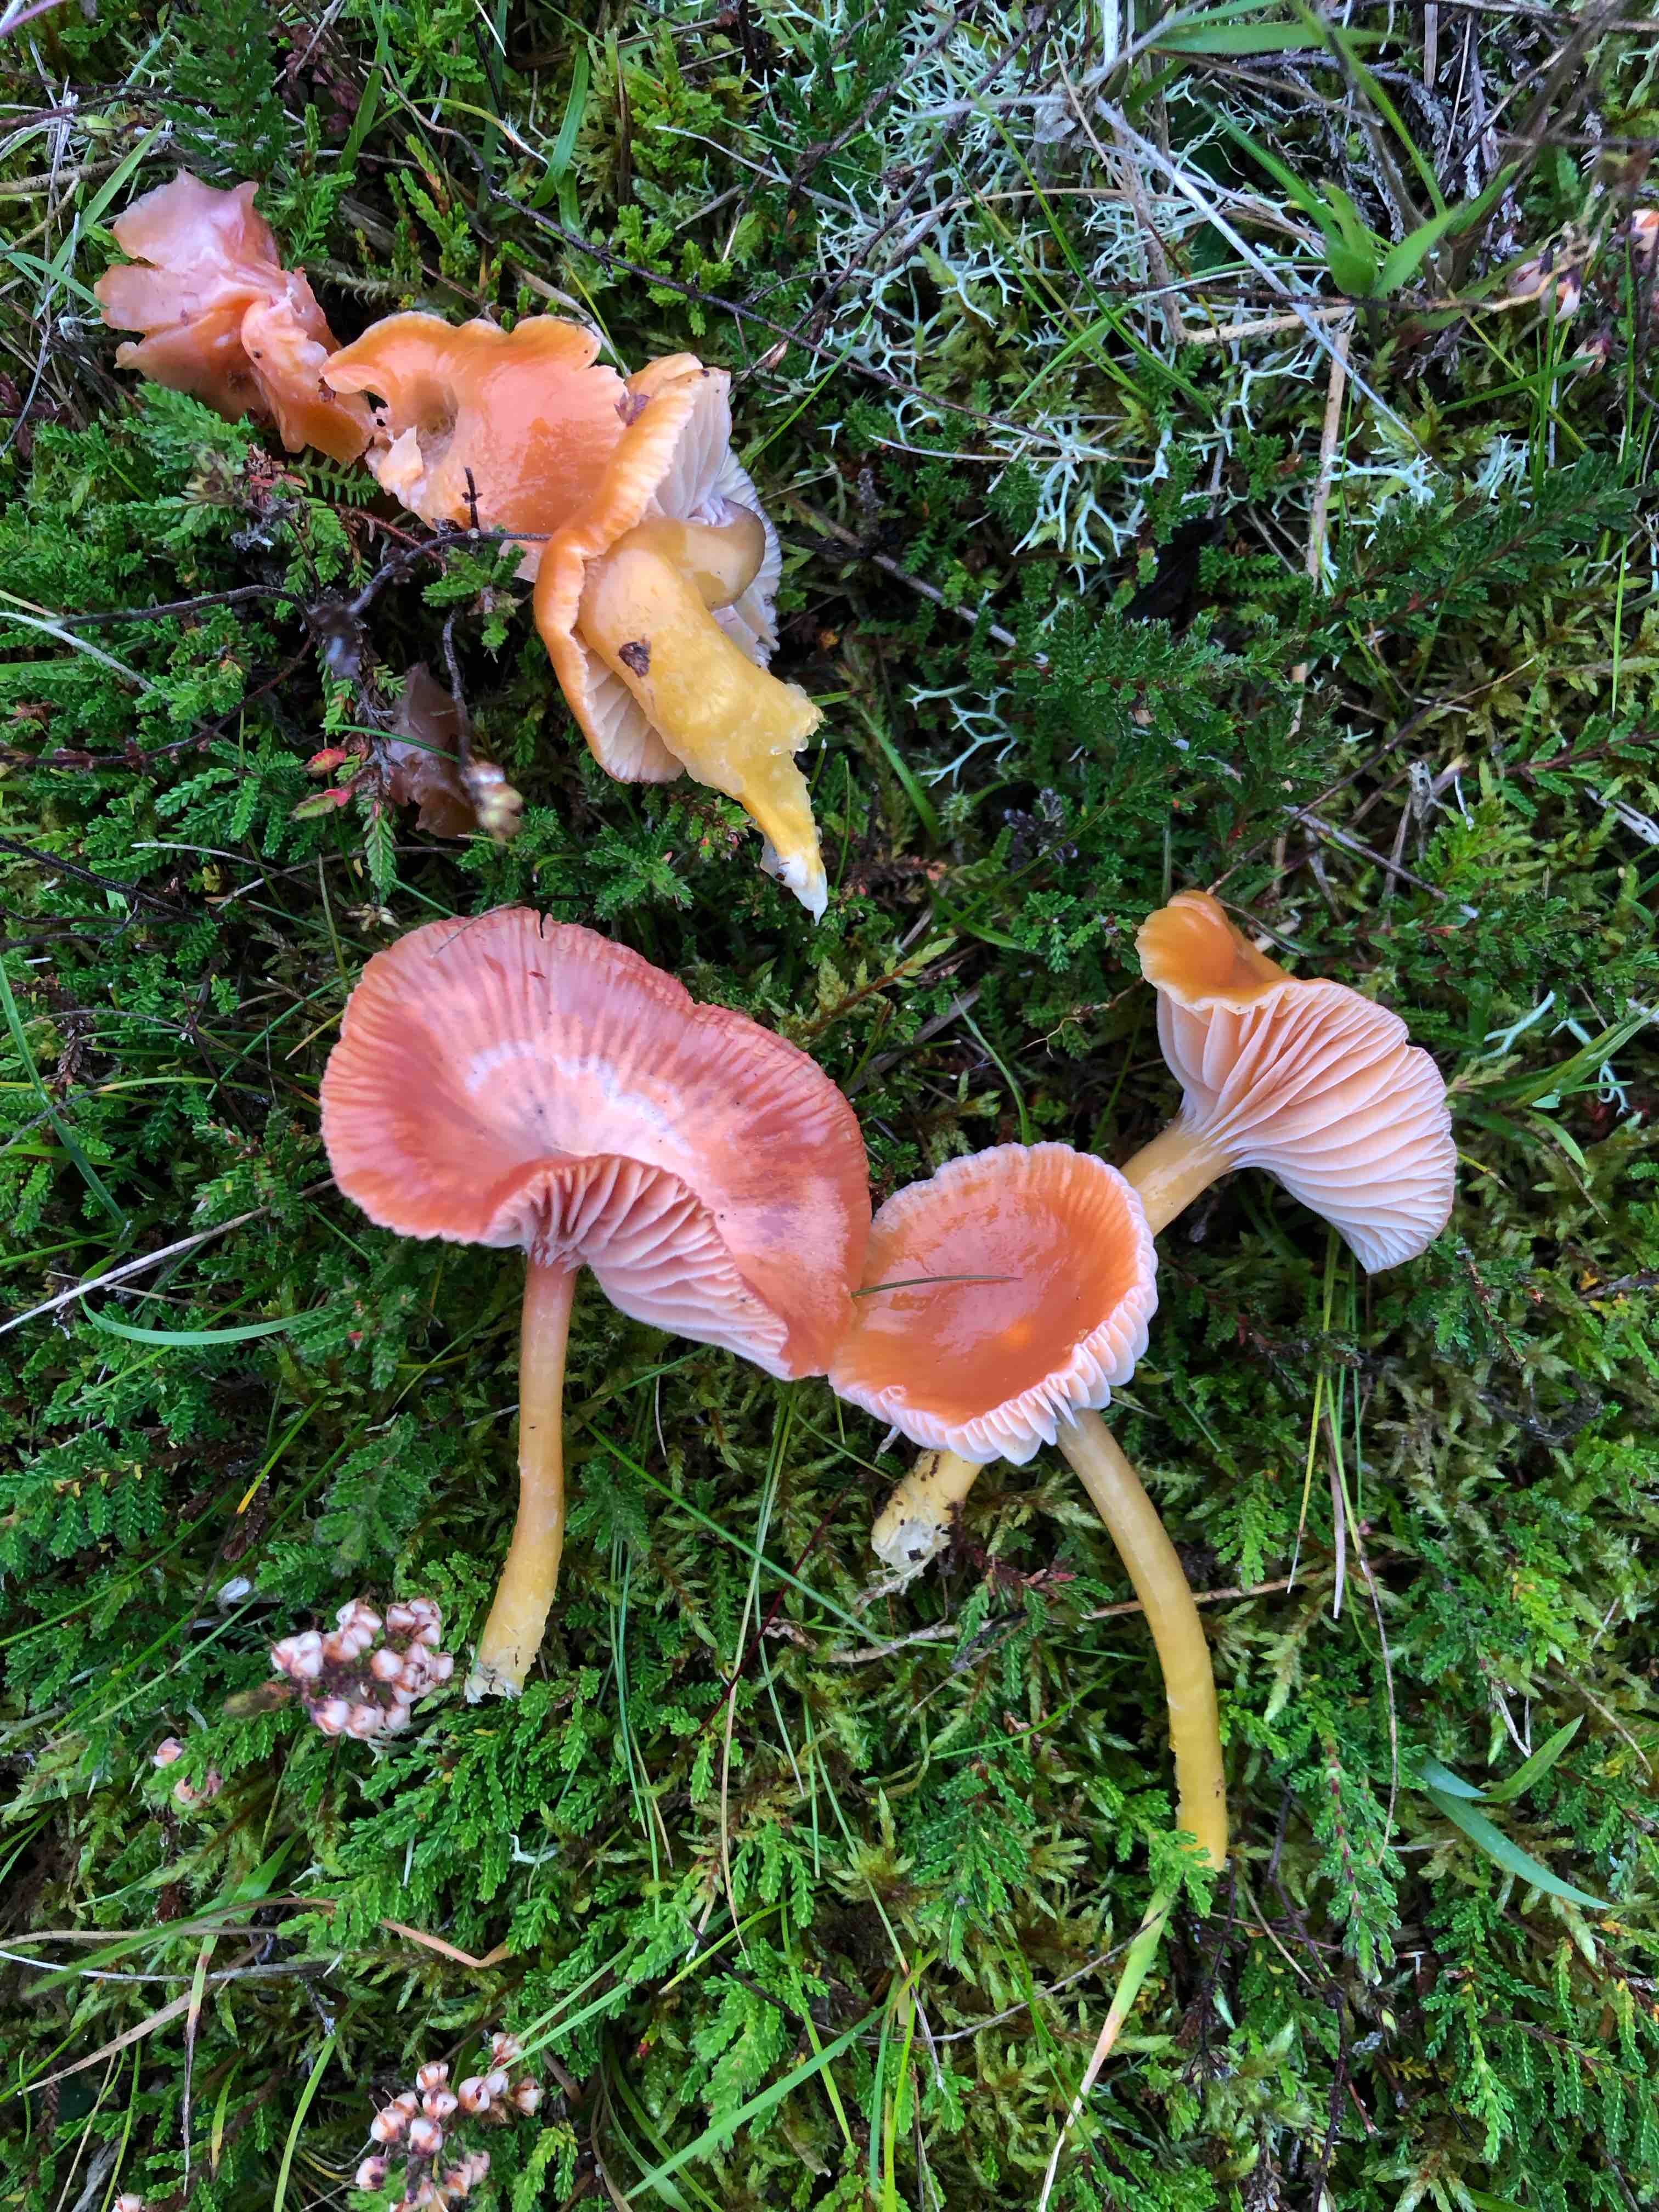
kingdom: Fungi
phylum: Basidiomycota
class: Agaricomycetes
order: Agaricales
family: Hygrophoraceae
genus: Gliophorus
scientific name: Gliophorus laetus
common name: brusk-vokshat
